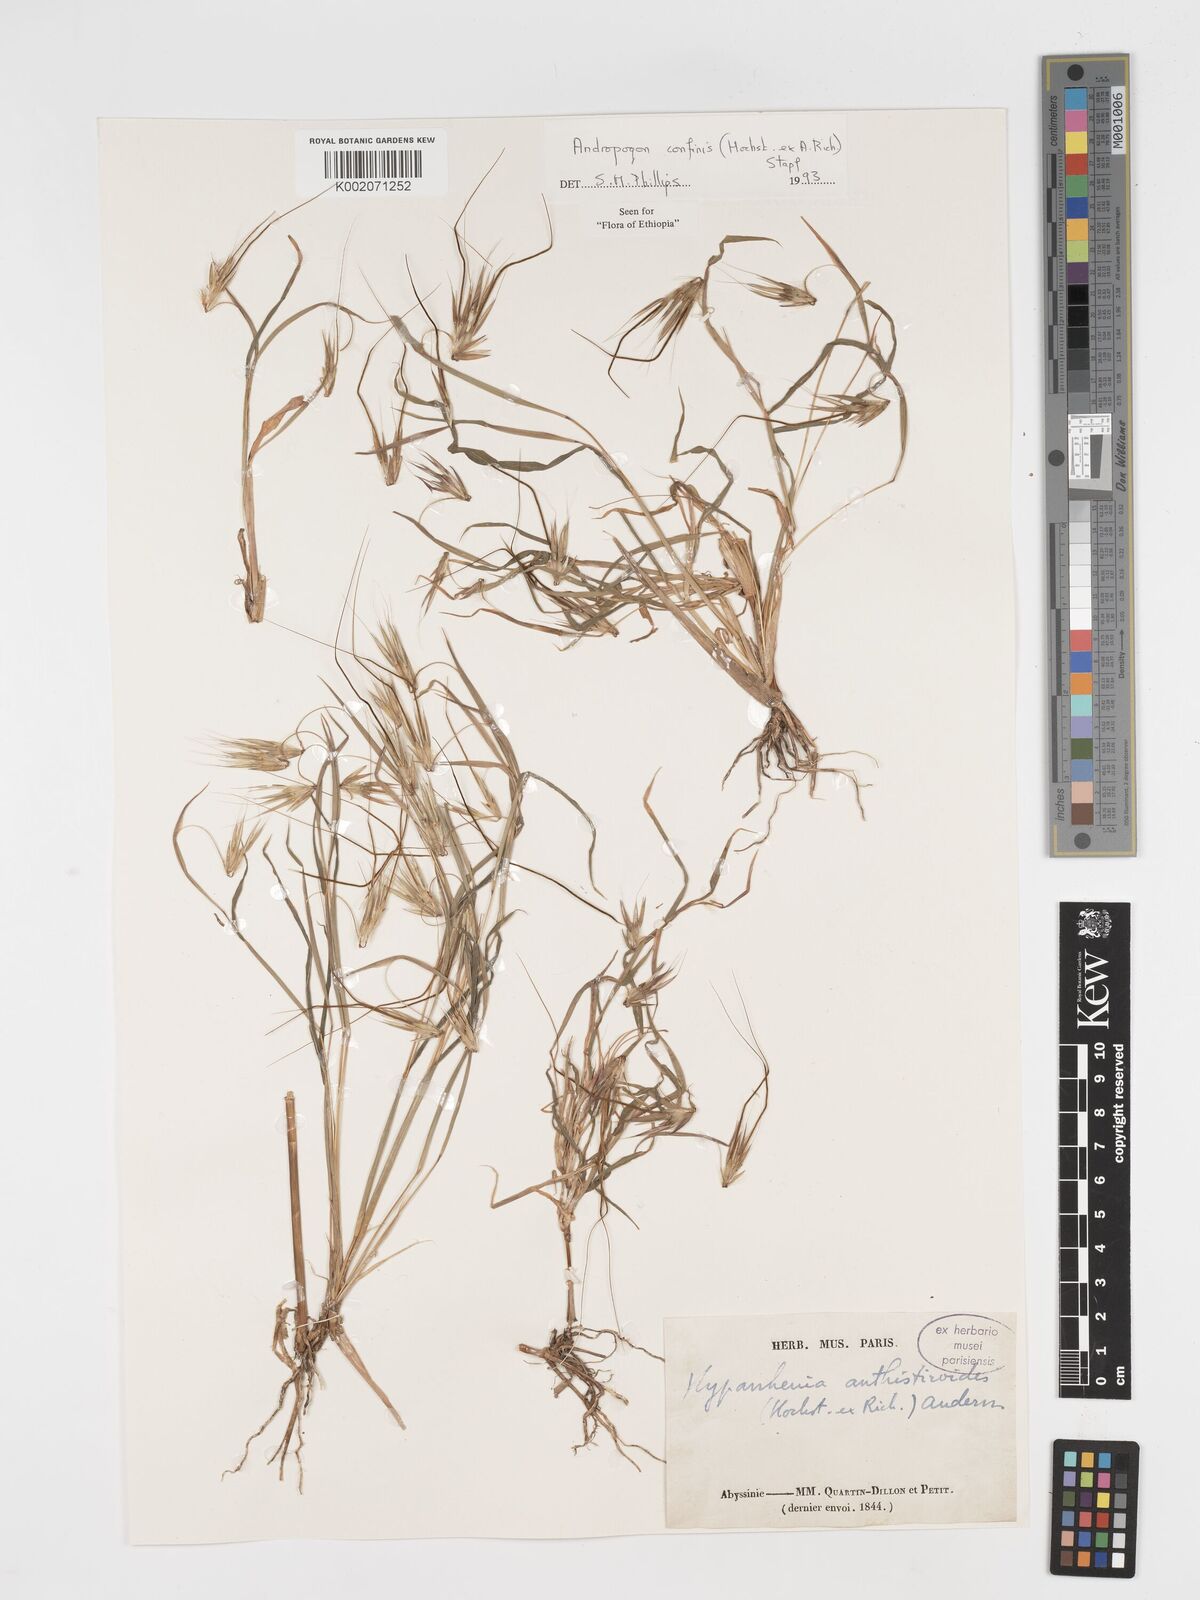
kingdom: Plantae
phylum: Tracheophyta
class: Liliopsida
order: Poales
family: Poaceae
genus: Hyparrhenia
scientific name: Hyparrhenia confinis
